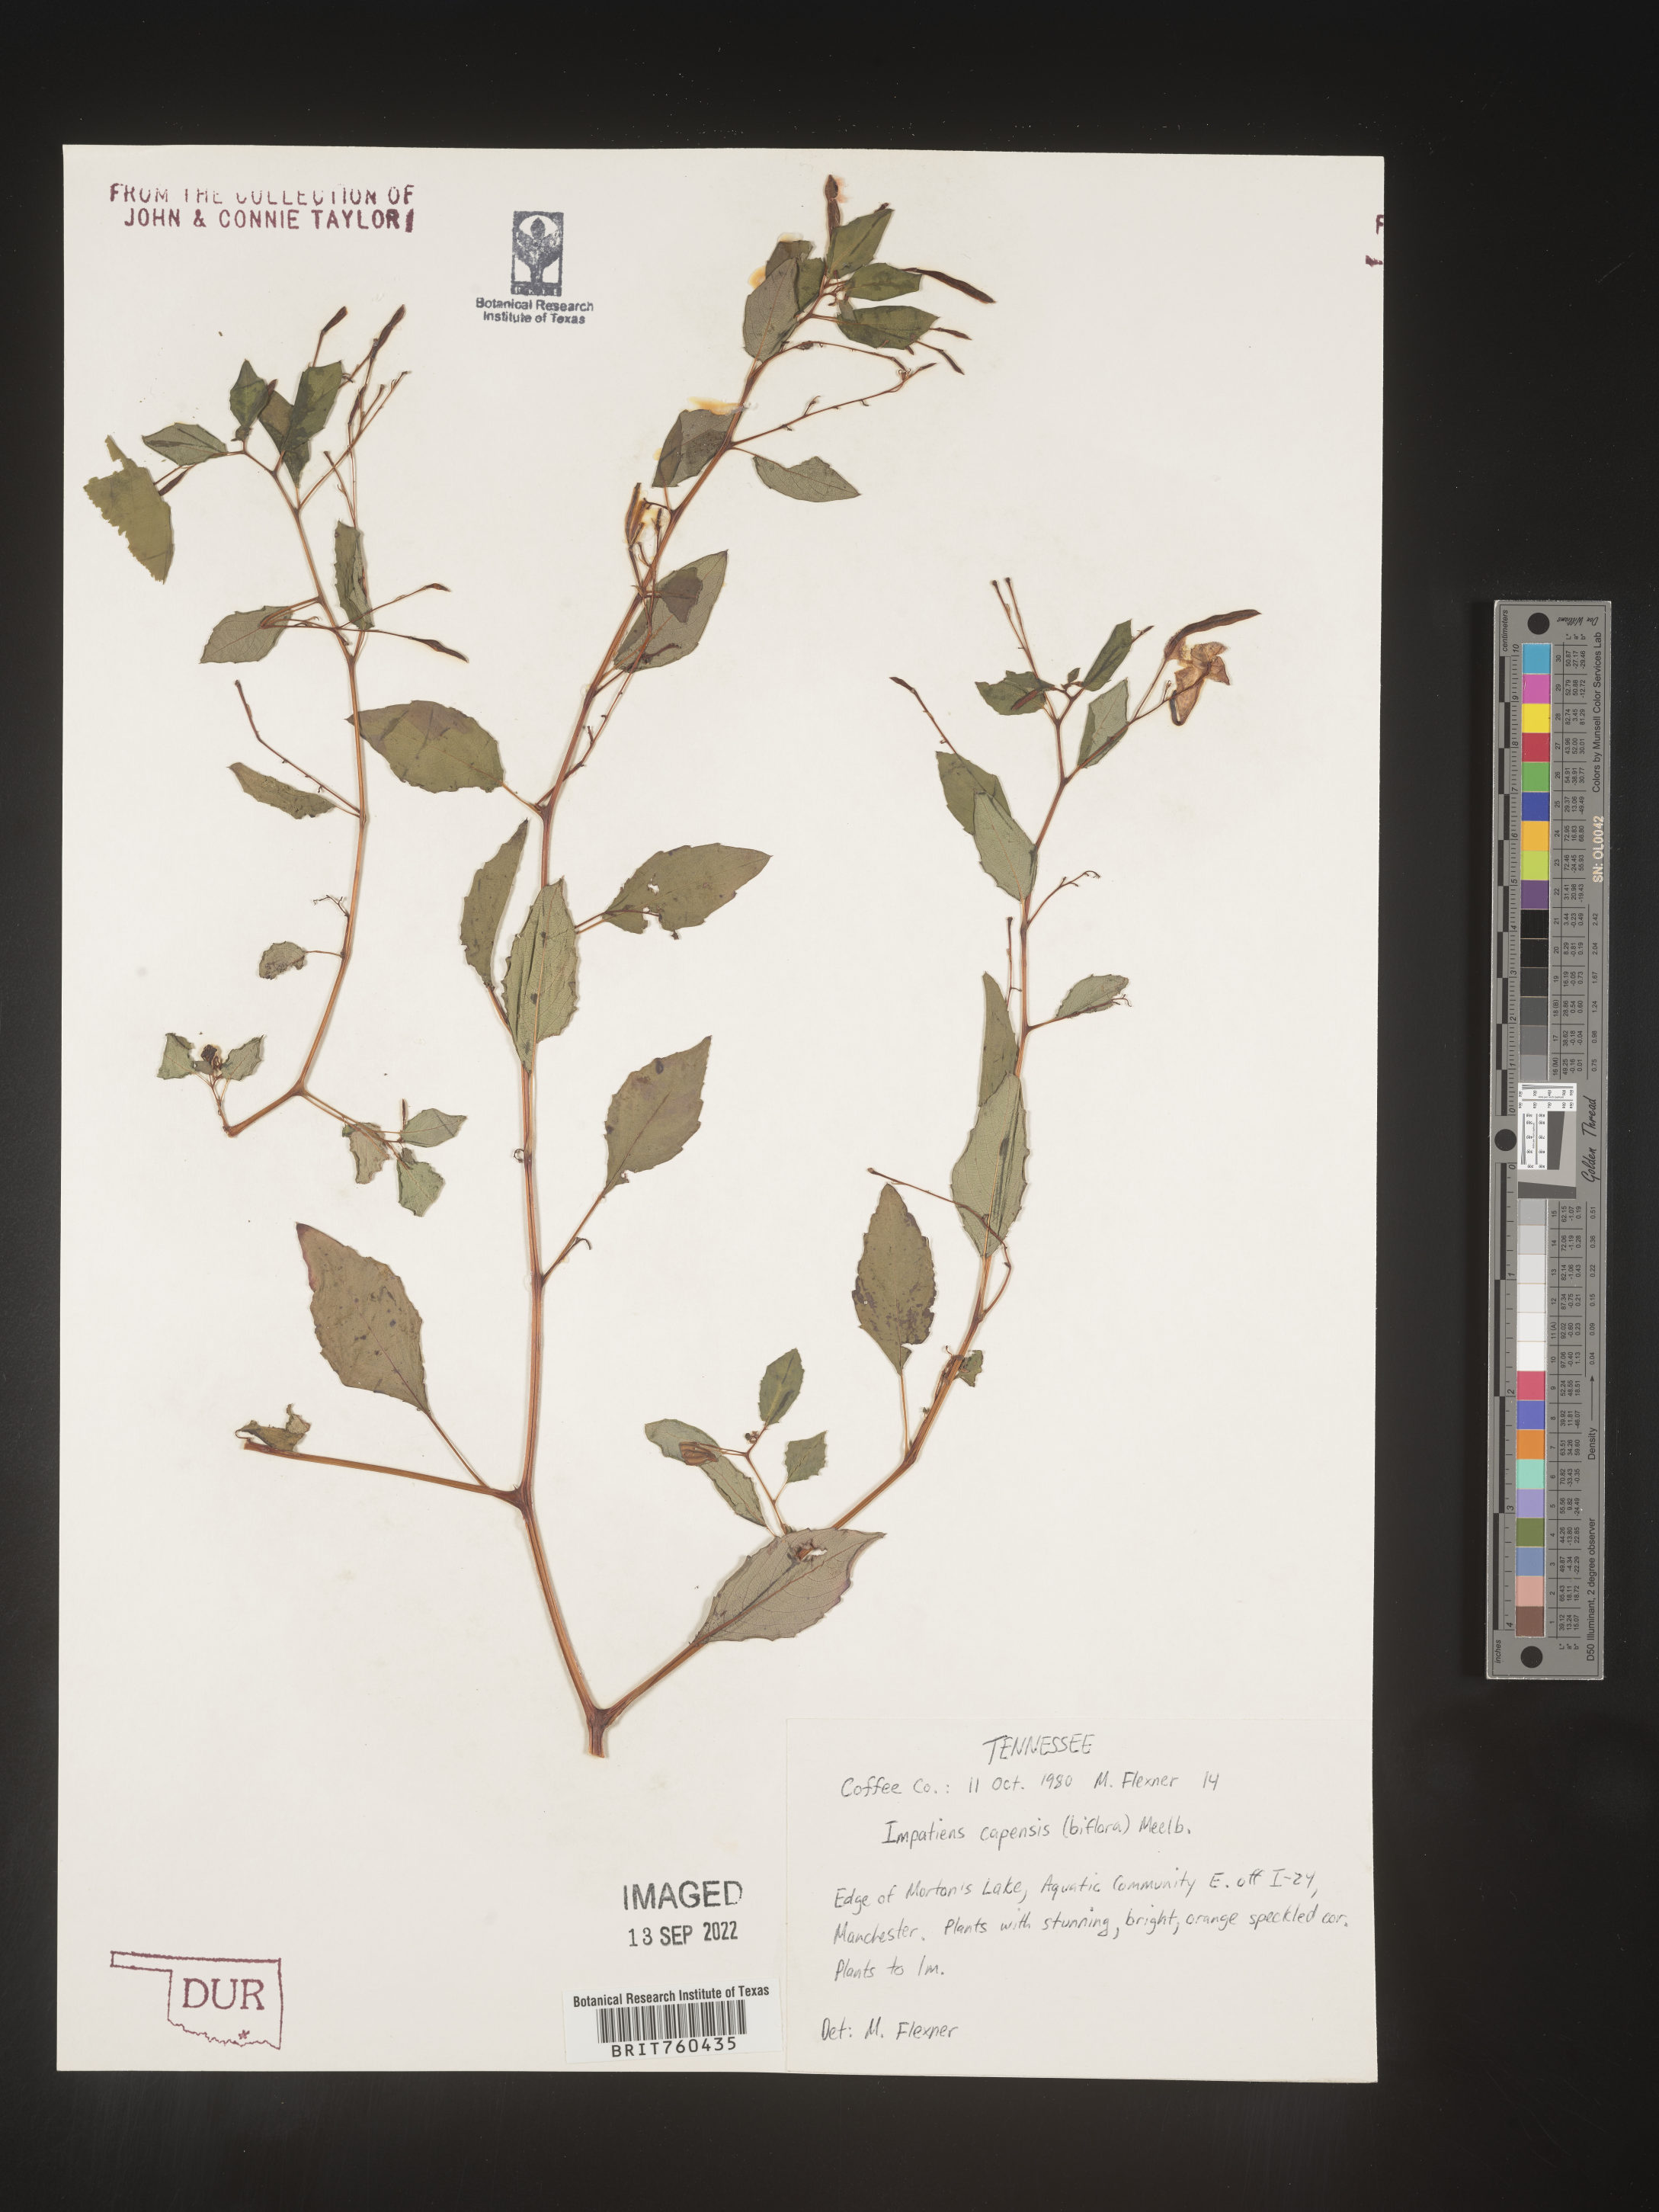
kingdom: Plantae
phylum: Tracheophyta
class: Magnoliopsida
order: Ericales
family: Balsaminaceae
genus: Impatiens
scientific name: Impatiens capensis
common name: Orange balsam
